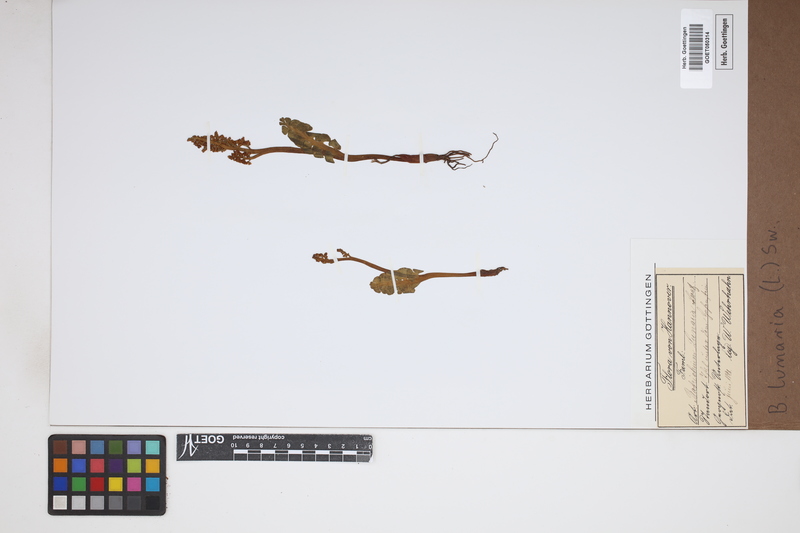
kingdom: Plantae
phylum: Tracheophyta
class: Polypodiopsida
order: Ophioglossales
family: Ophioglossaceae
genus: Botrychium
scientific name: Botrychium lunaria
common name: Moonwort
